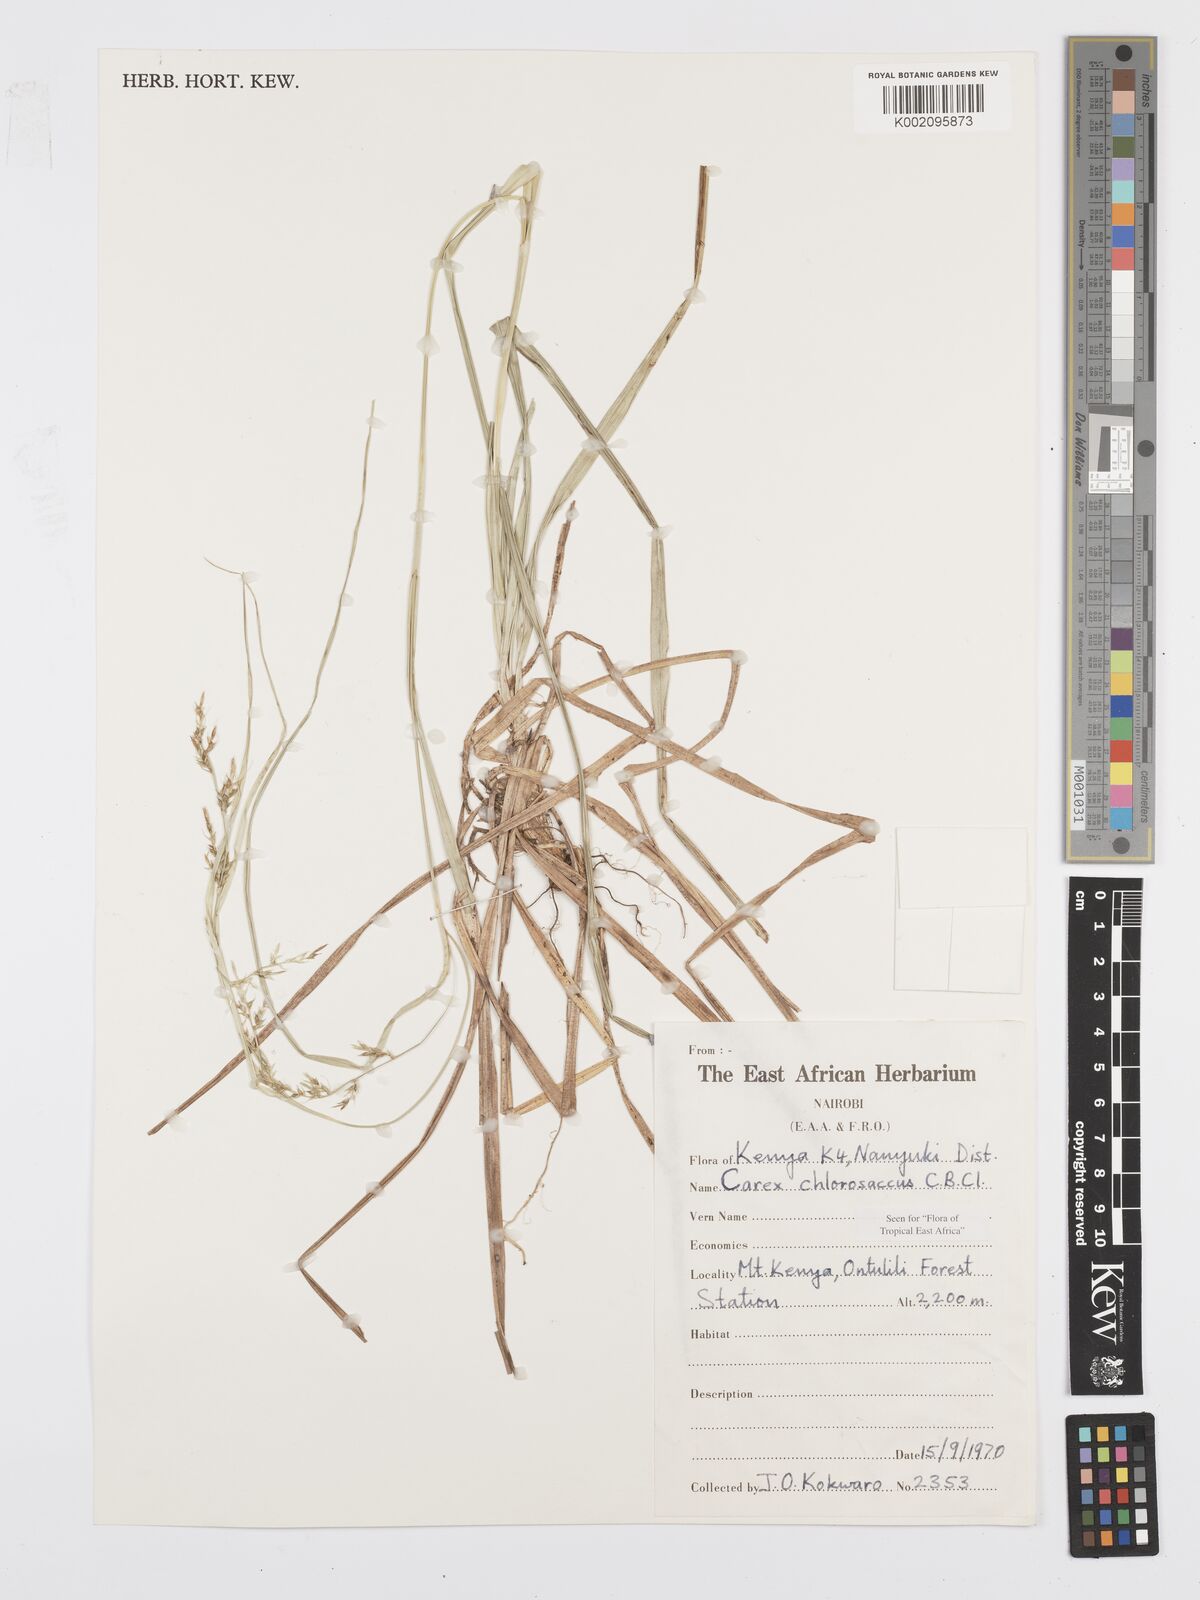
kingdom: Plantae
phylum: Tracheophyta
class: Liliopsida
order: Poales
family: Cyperaceae
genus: Carex
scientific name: Carex chlorosaccus
